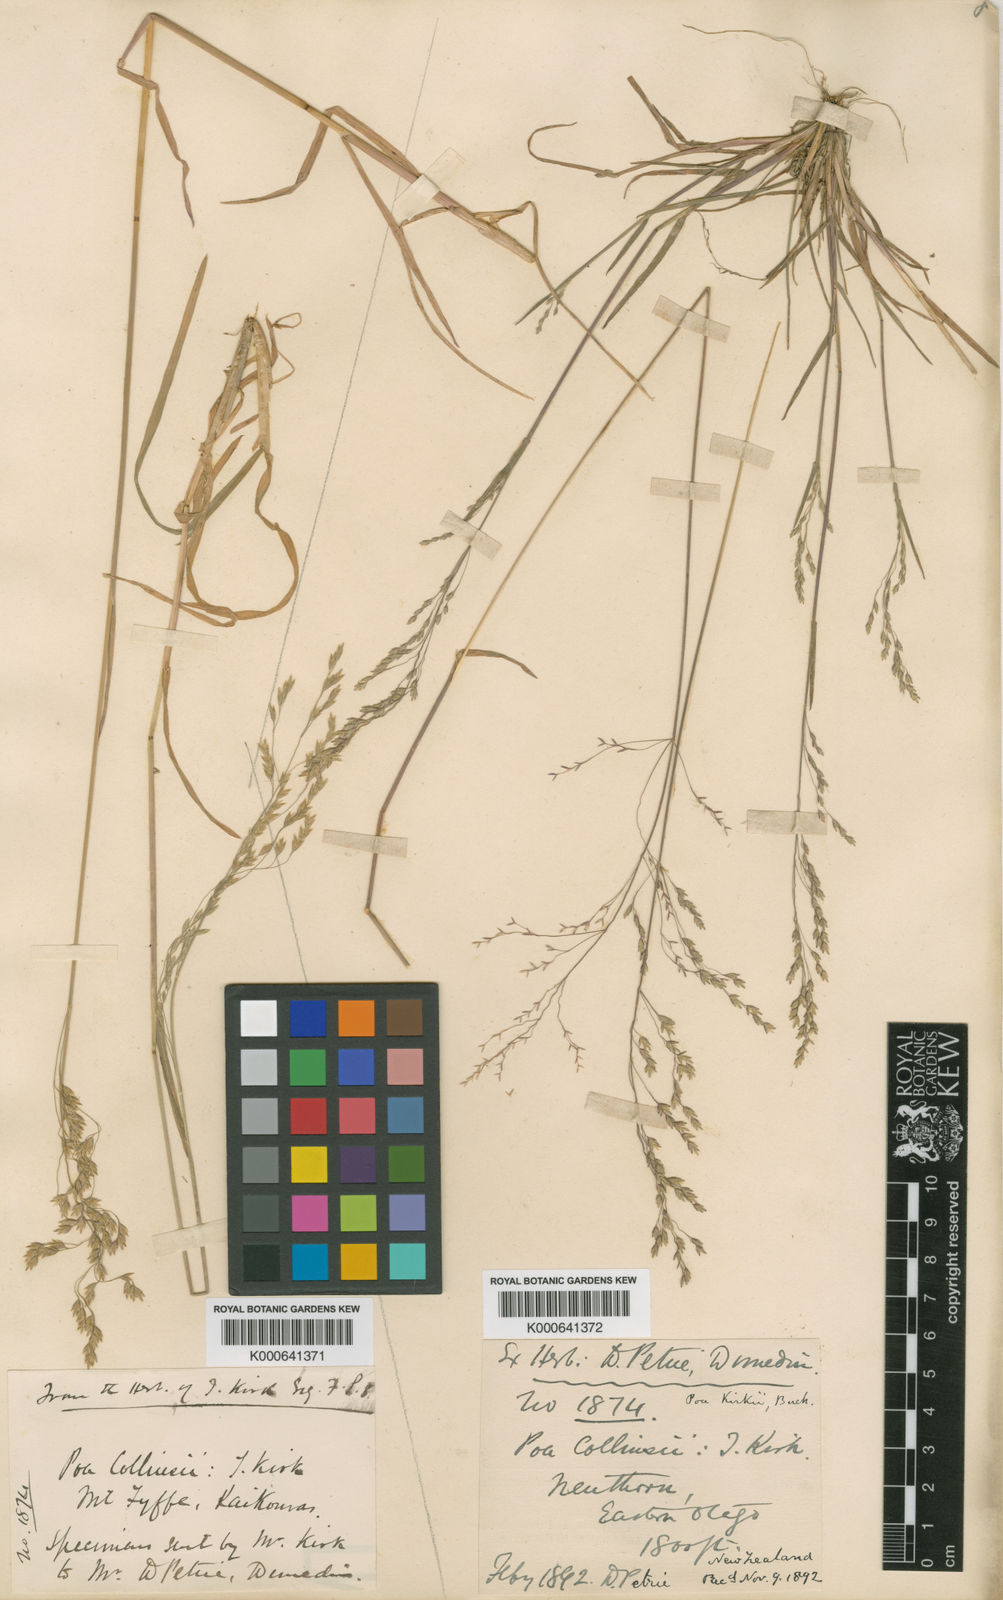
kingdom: Plantae
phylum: Tracheophyta
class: Liliopsida
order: Poales
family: Poaceae
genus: Poa
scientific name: Poa kirkii
